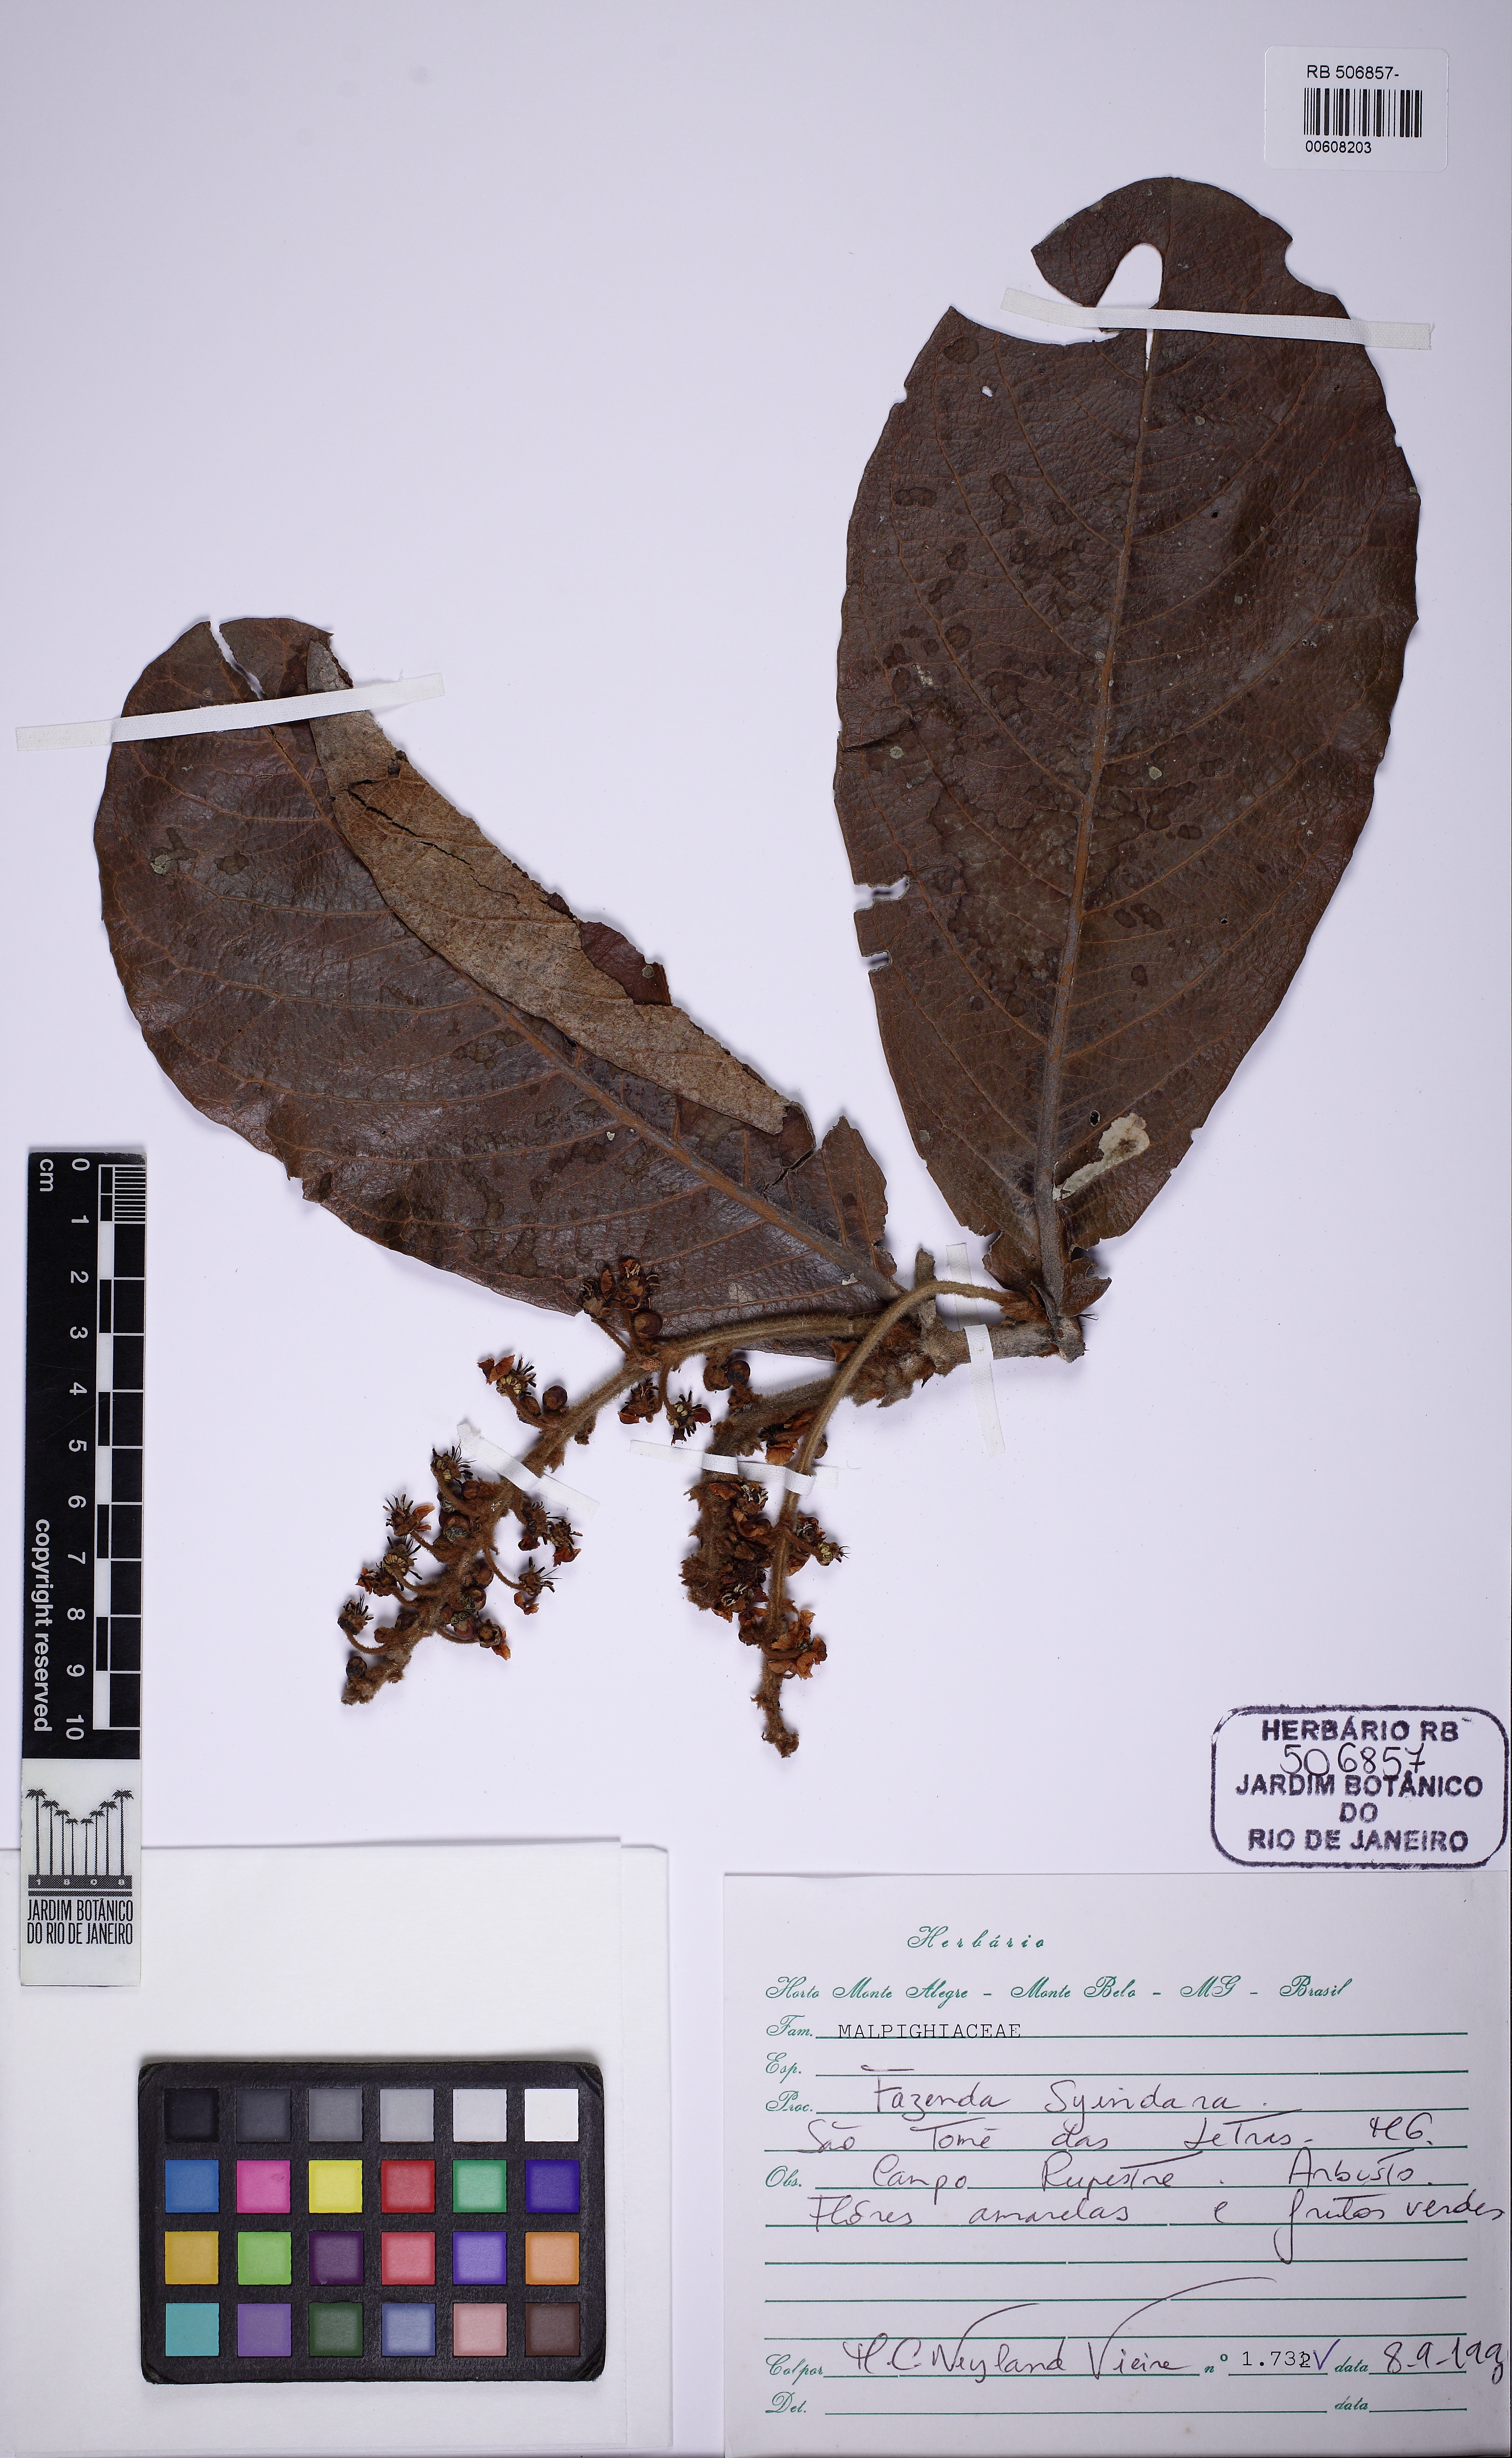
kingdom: Plantae
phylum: Tracheophyta
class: Magnoliopsida
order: Malpighiales
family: Malpighiaceae
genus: Byrsonima
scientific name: Byrsonima
